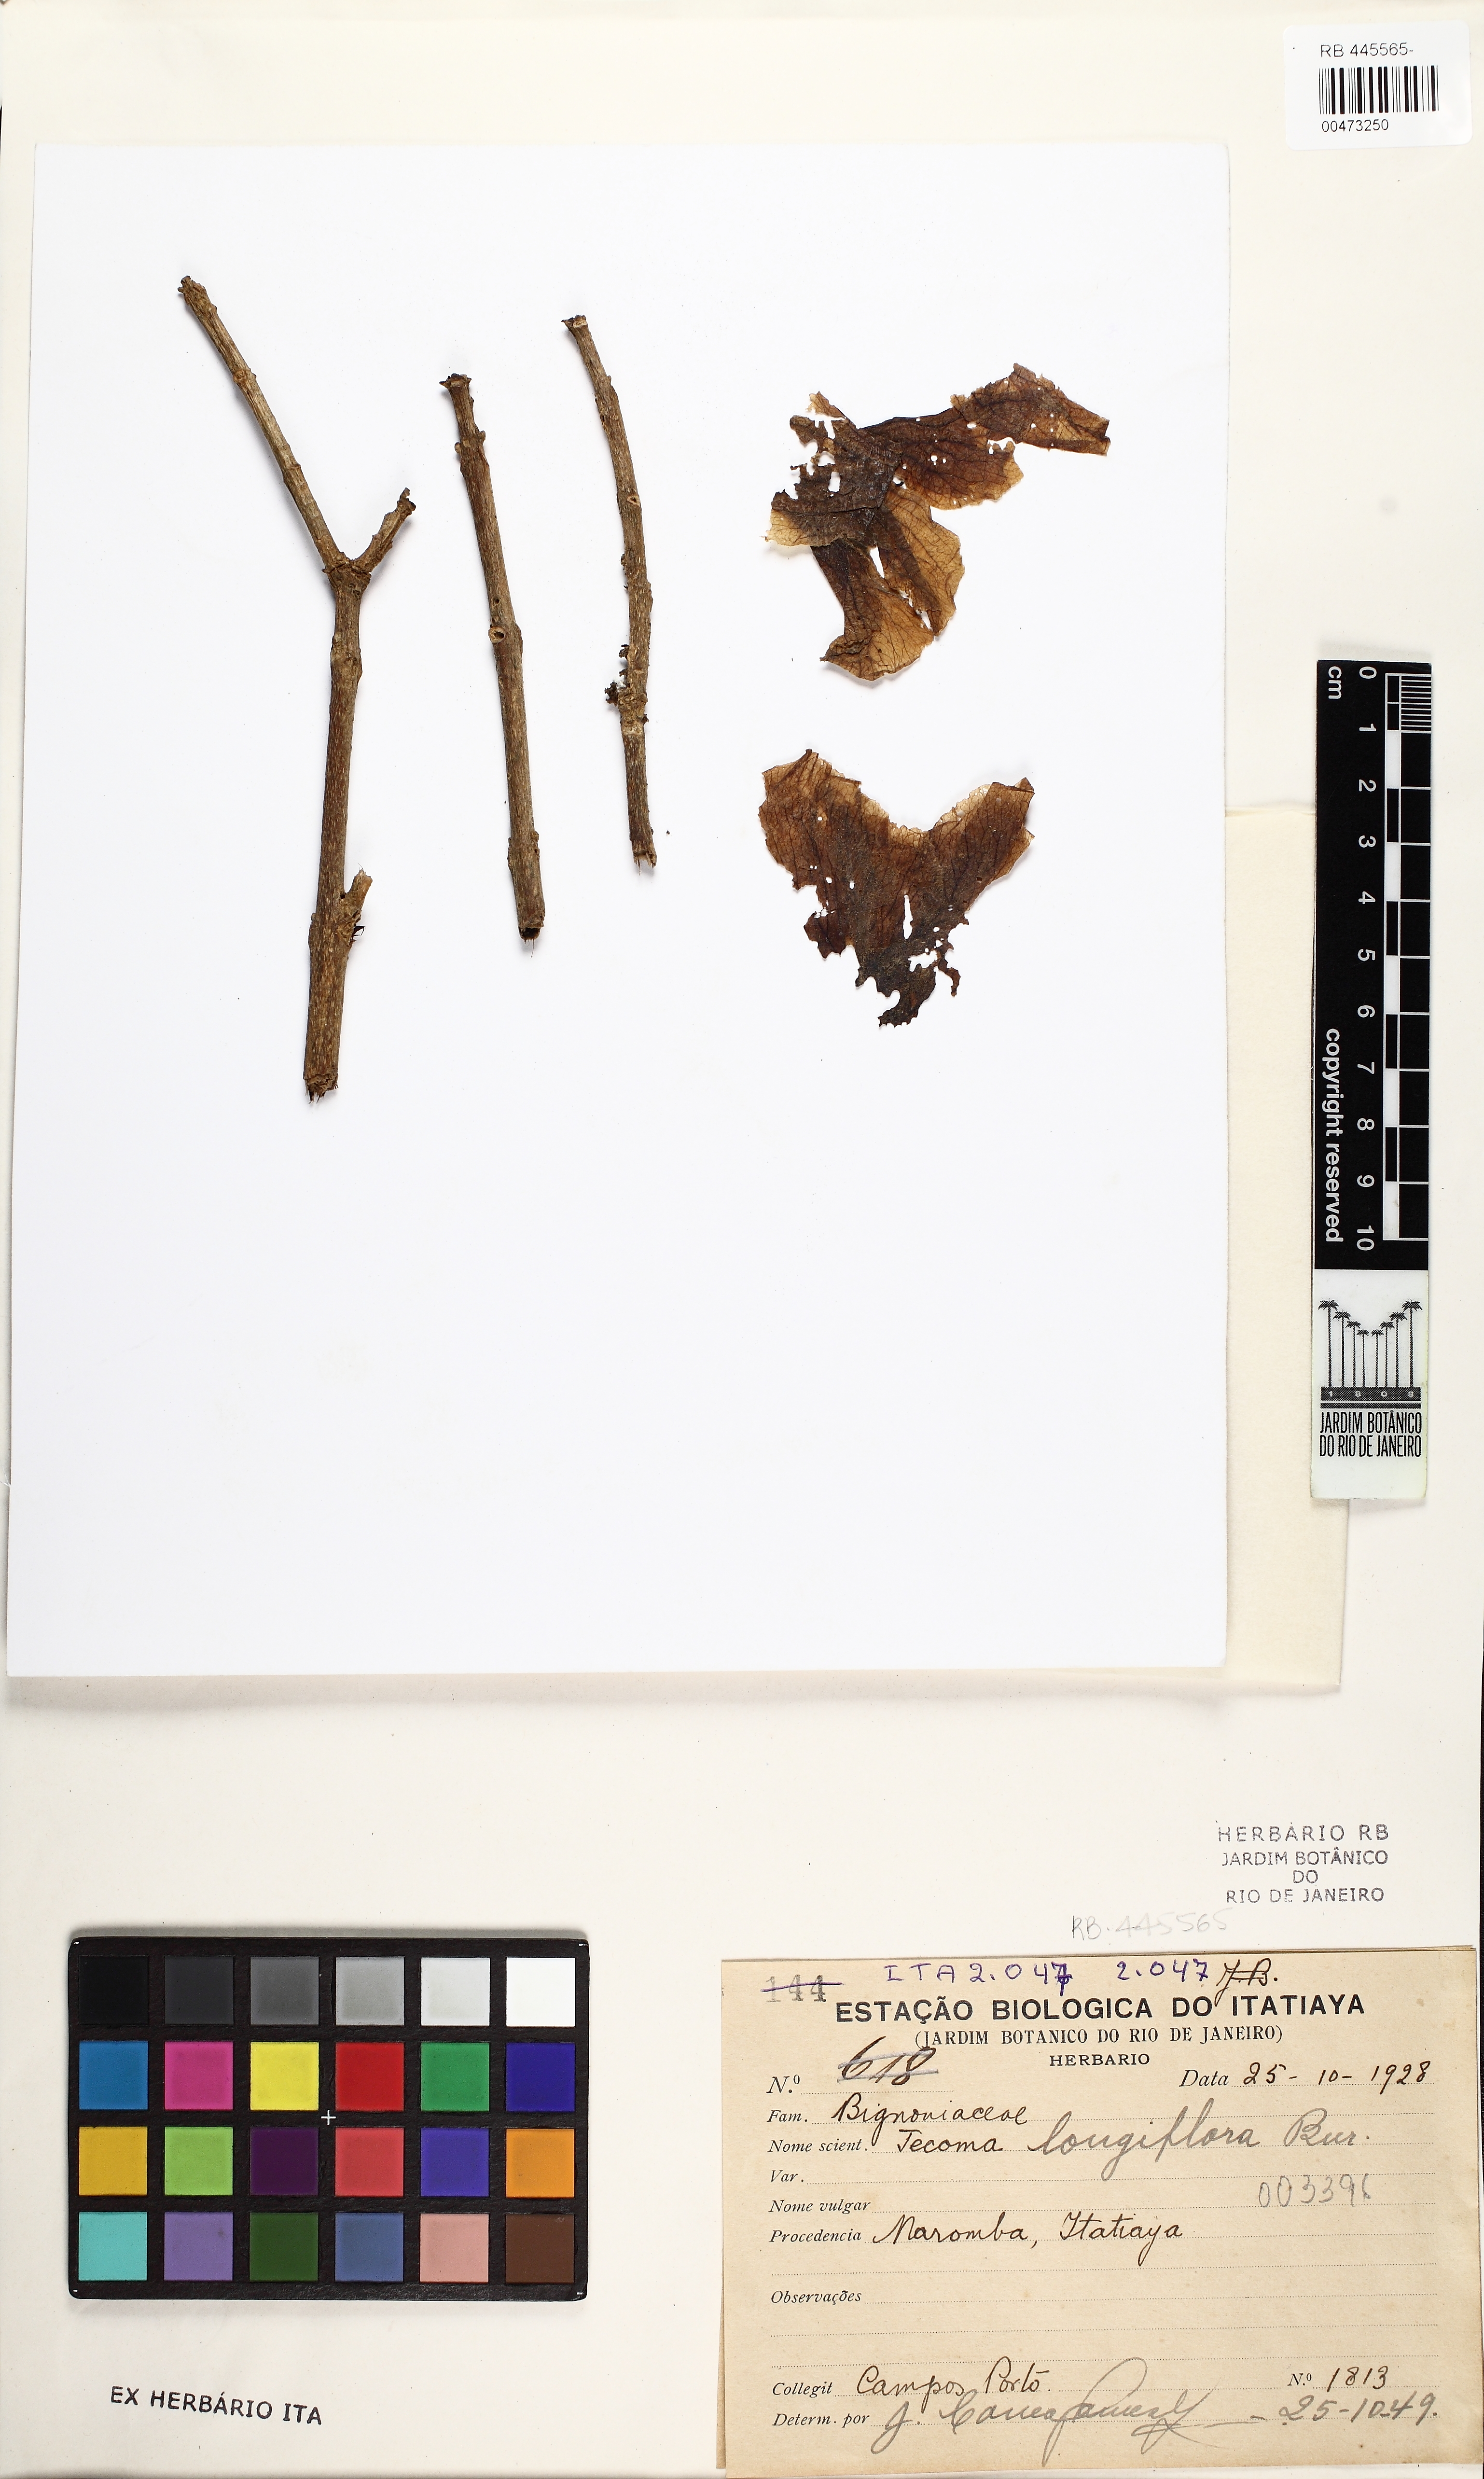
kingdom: Plantae
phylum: Tracheophyta
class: Magnoliopsida
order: Lamiales
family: Bignoniaceae
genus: Handroanthus
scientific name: Handroanthus vellosoi
